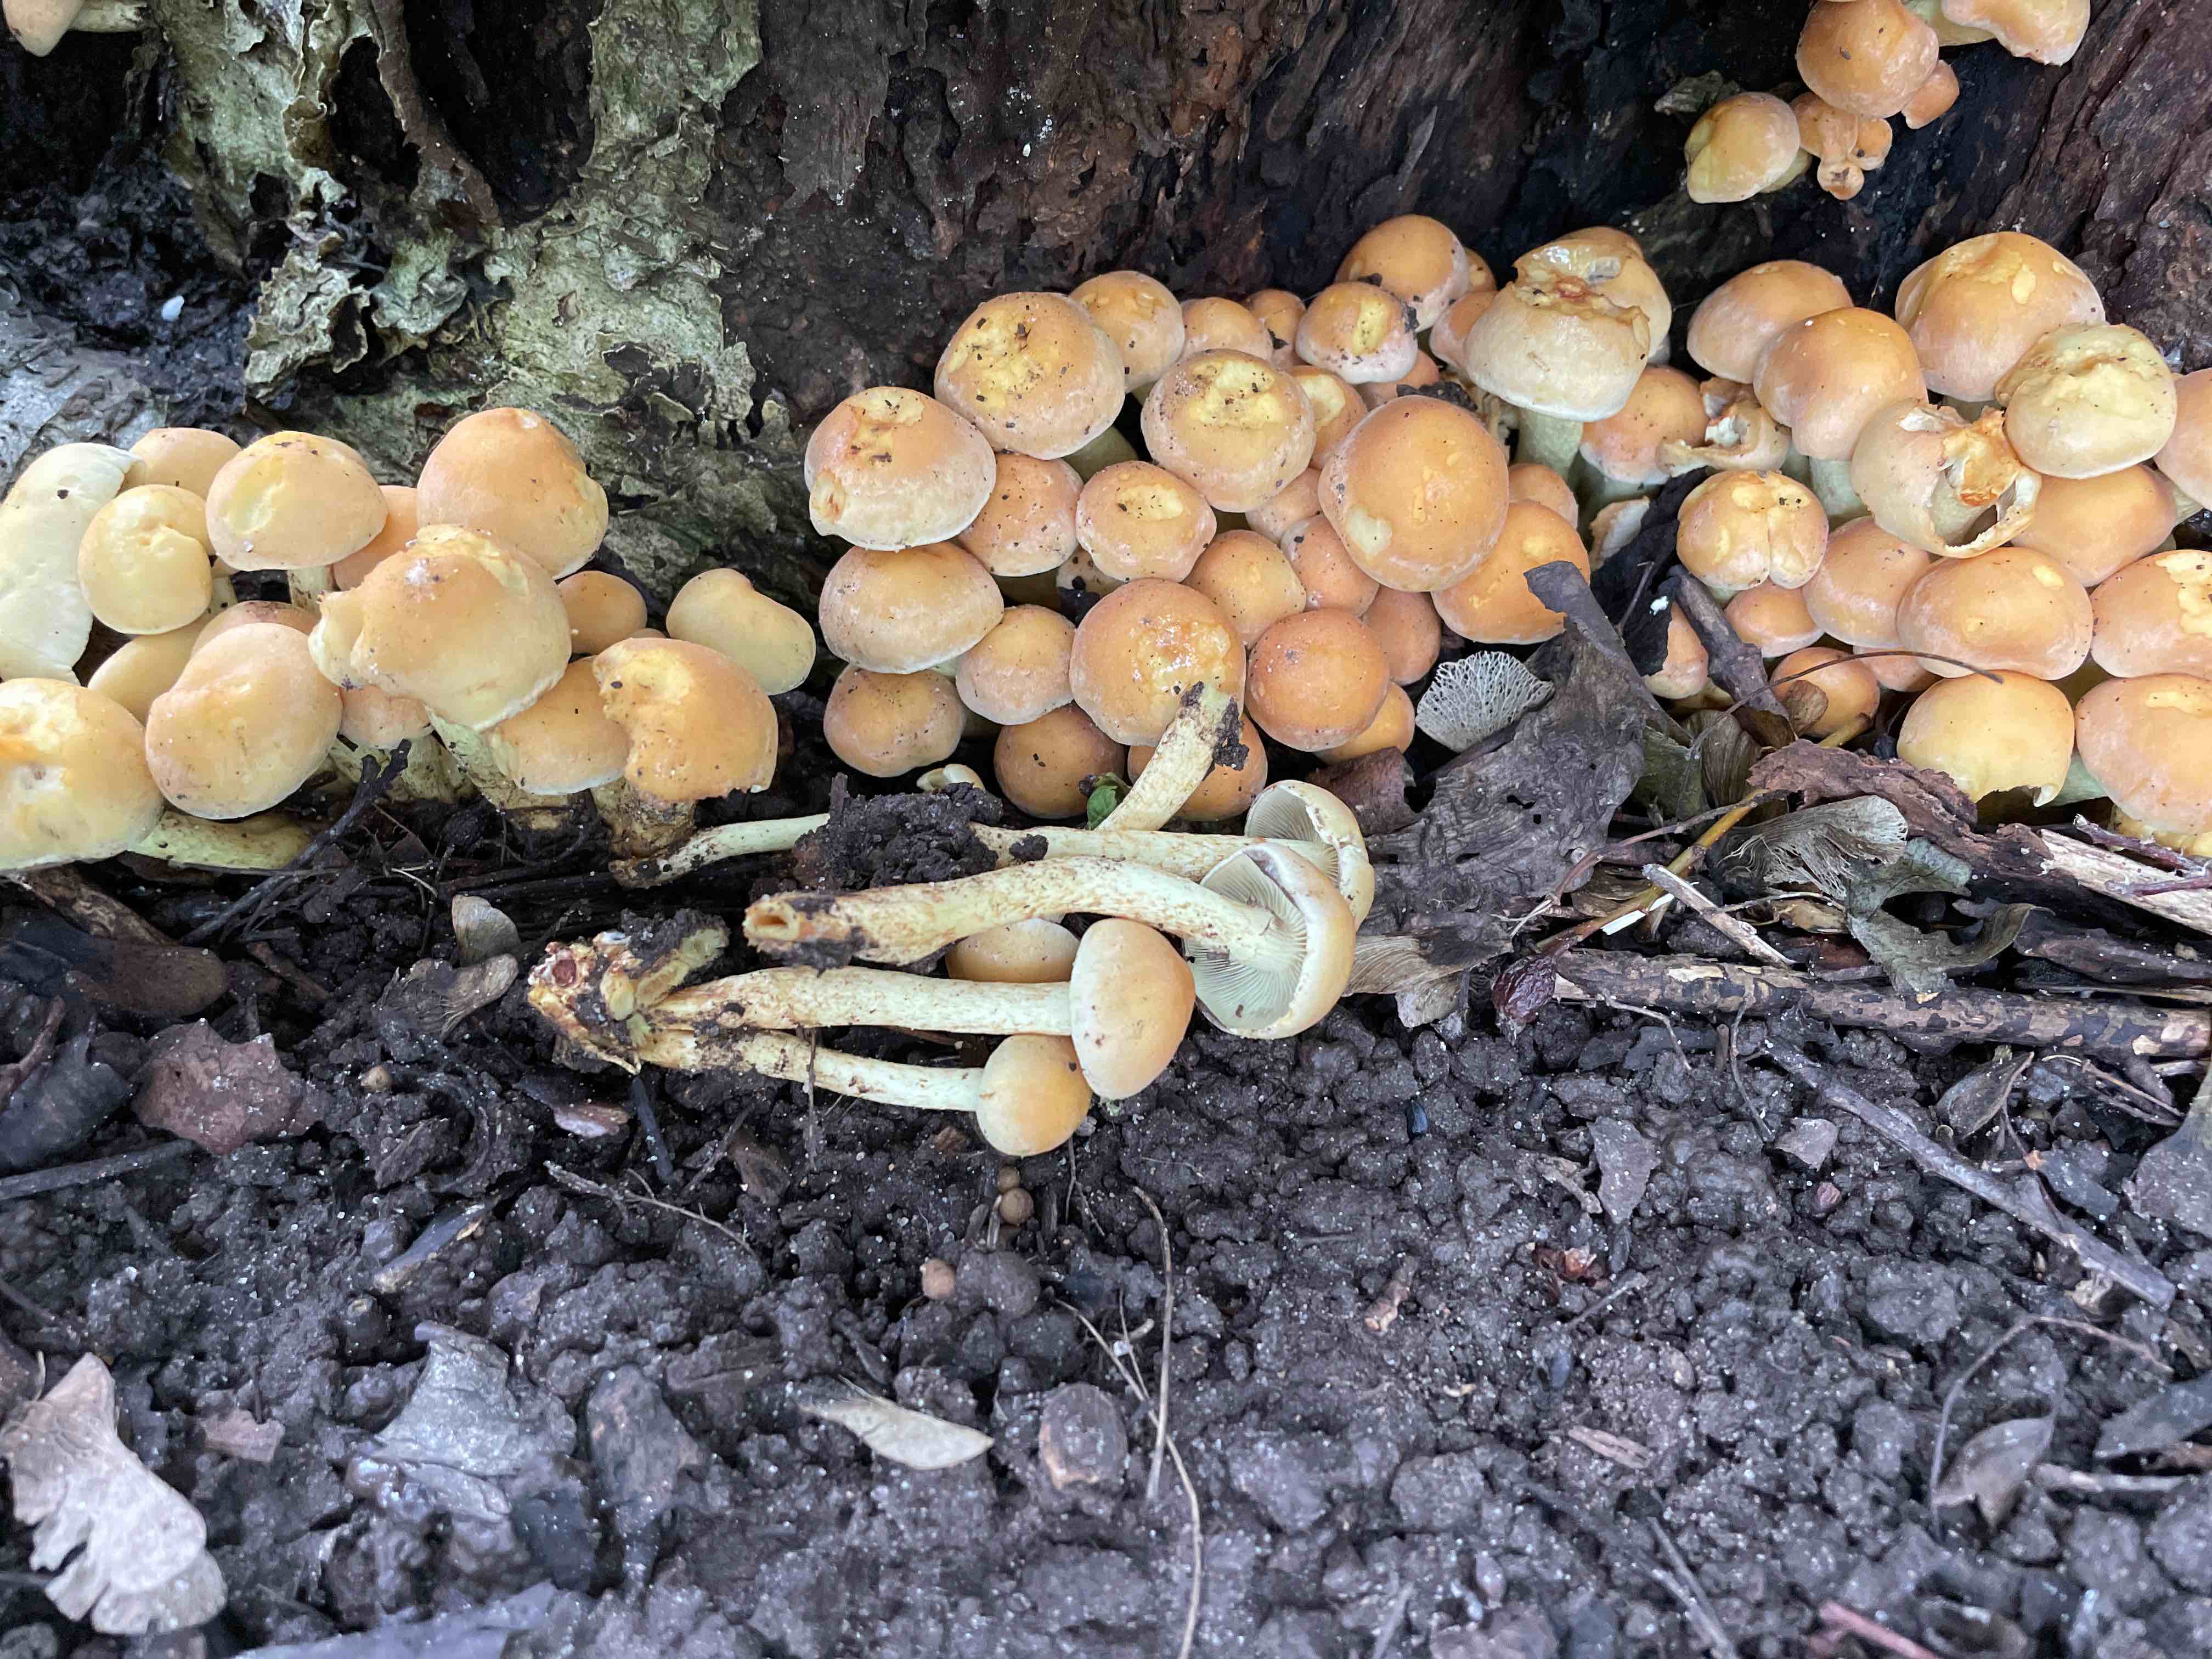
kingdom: Fungi
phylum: Basidiomycota
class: Agaricomycetes
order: Agaricales
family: Strophariaceae
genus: Hypholoma
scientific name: Hypholoma fasciculare
